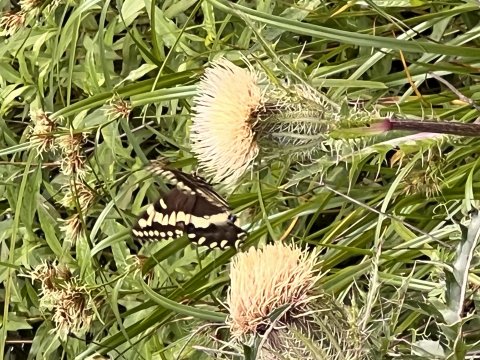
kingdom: Animalia
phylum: Arthropoda
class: Insecta
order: Lepidoptera
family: Papilionidae
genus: Pterourus
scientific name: Pterourus palamedes
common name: Palamedes Swallowtail
